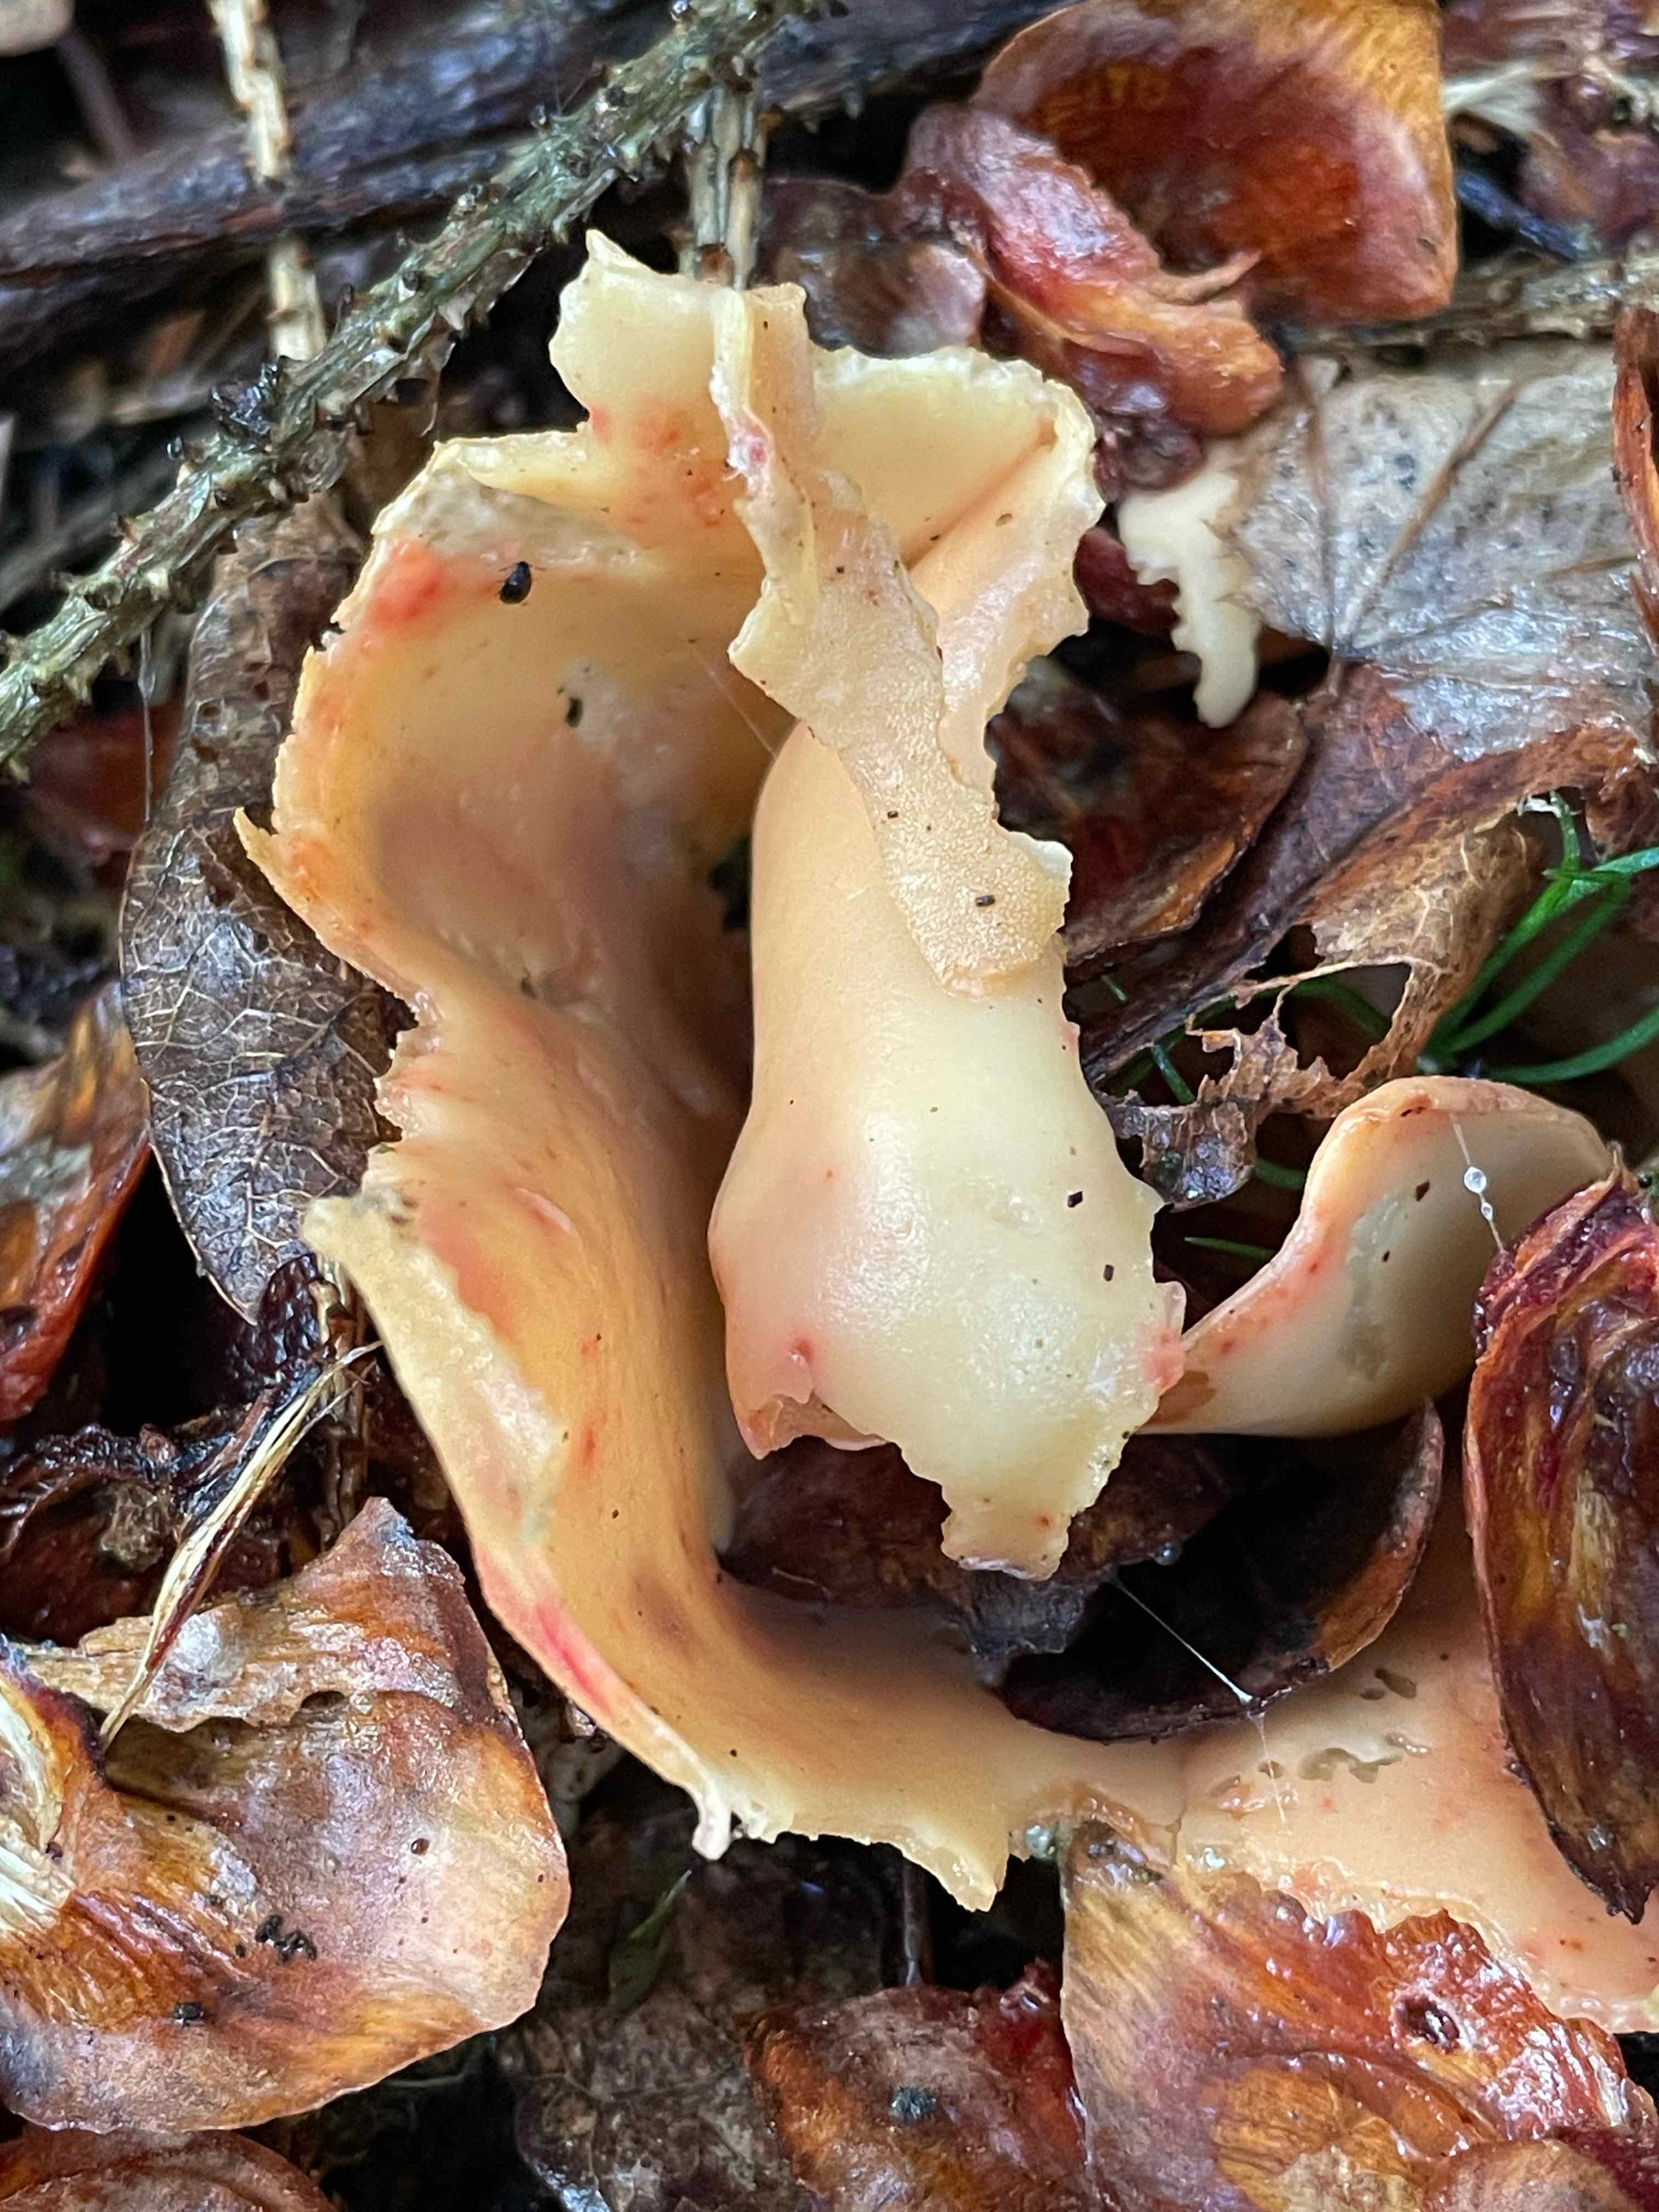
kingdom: Fungi
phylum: Ascomycota
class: Pezizomycetes
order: Pezizales
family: Otideaceae
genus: Otidea
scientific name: Otidea onotica
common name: æsel-ørebæger
